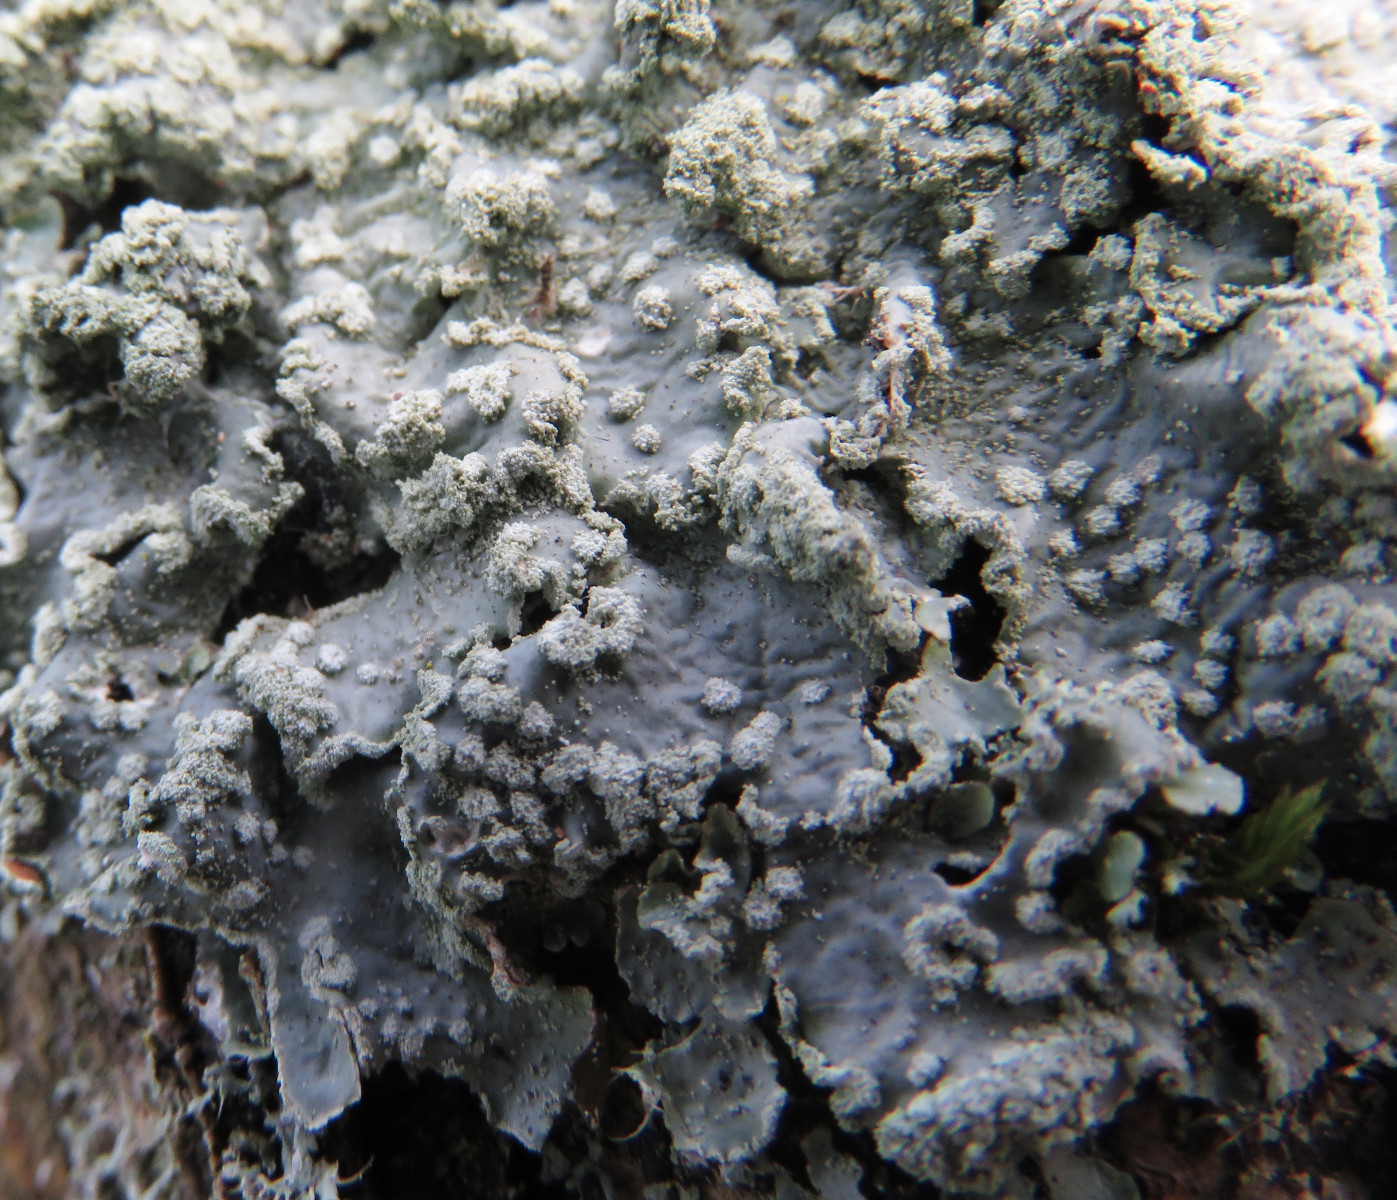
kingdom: Fungi
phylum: Ascomycota
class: Lecanoromycetes
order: Lecanorales
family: Parmeliaceae
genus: Punctelia
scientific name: Punctelia subrudecta
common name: punkt-skållav
